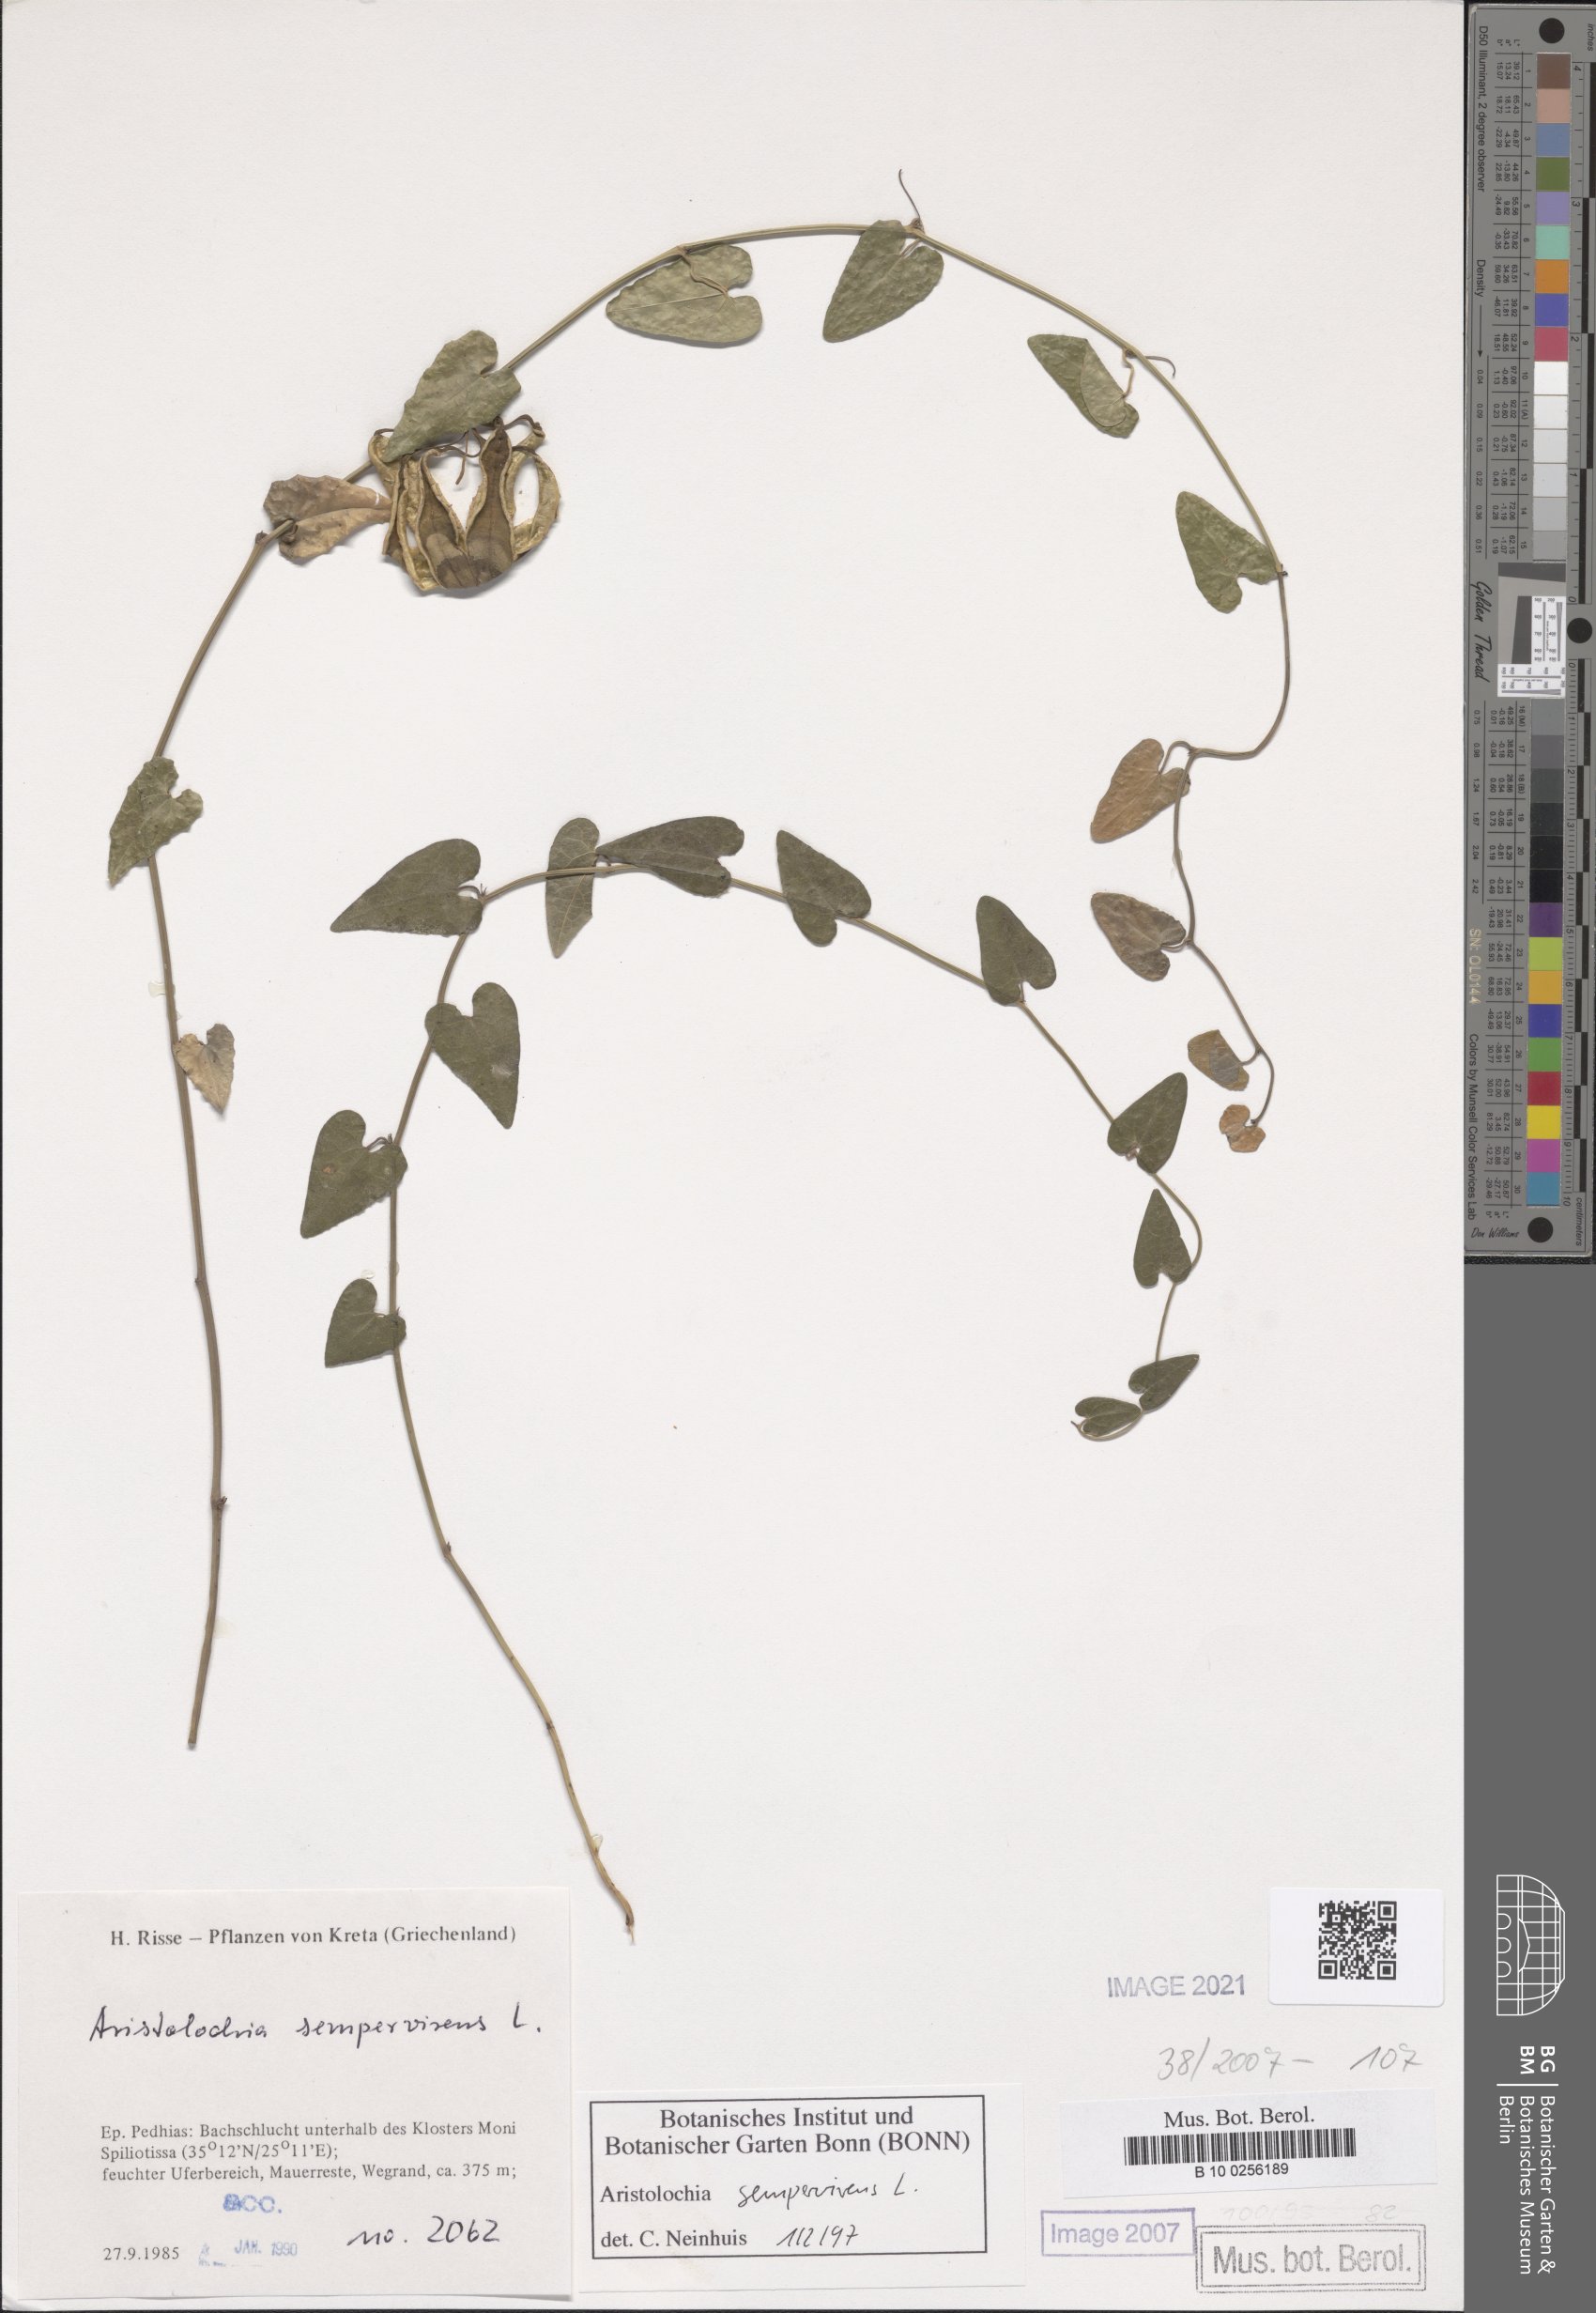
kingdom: Plantae
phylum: Tracheophyta
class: Magnoliopsida
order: Piperales
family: Aristolochiaceae
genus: Aristolochia
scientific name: Aristolochia sempervirens
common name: Long birthwort
